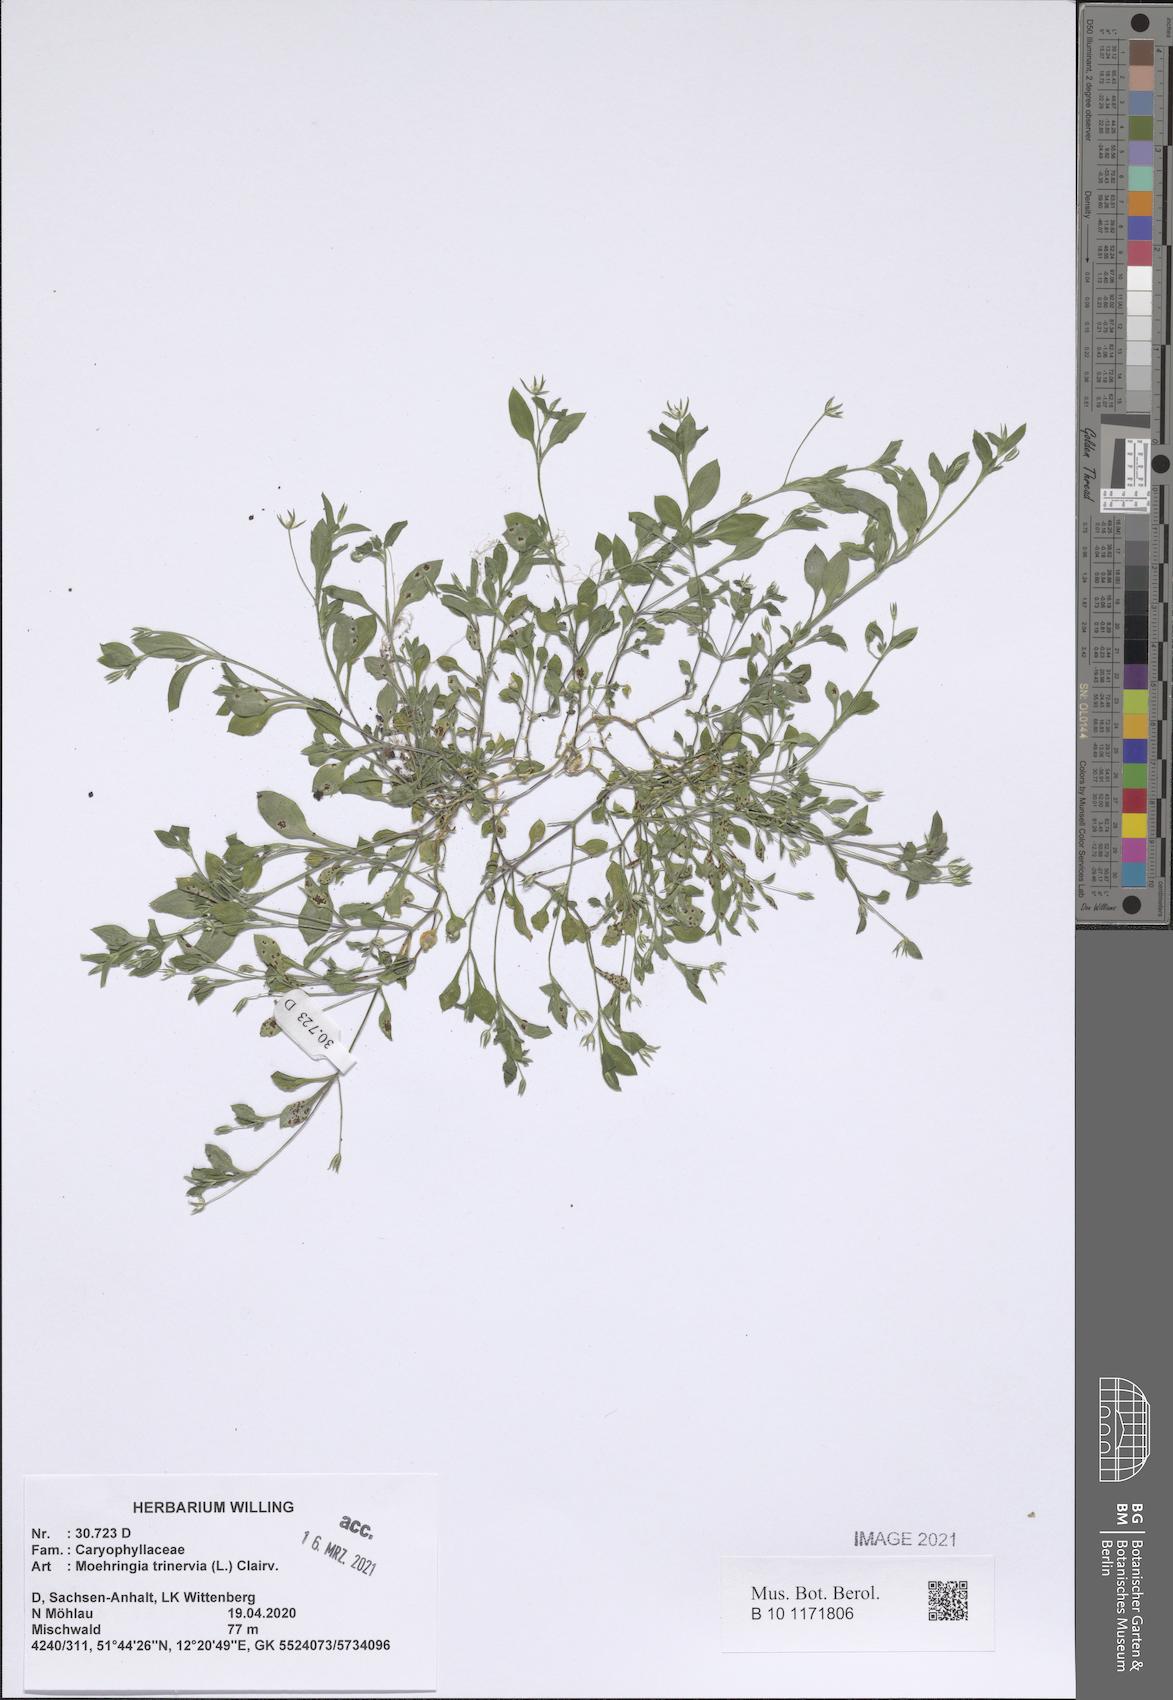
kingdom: Plantae
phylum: Tracheophyta
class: Magnoliopsida
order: Caryophyllales
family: Caryophyllaceae
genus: Moehringia
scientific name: Moehringia trinervia
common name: Three-nerved sandwort
